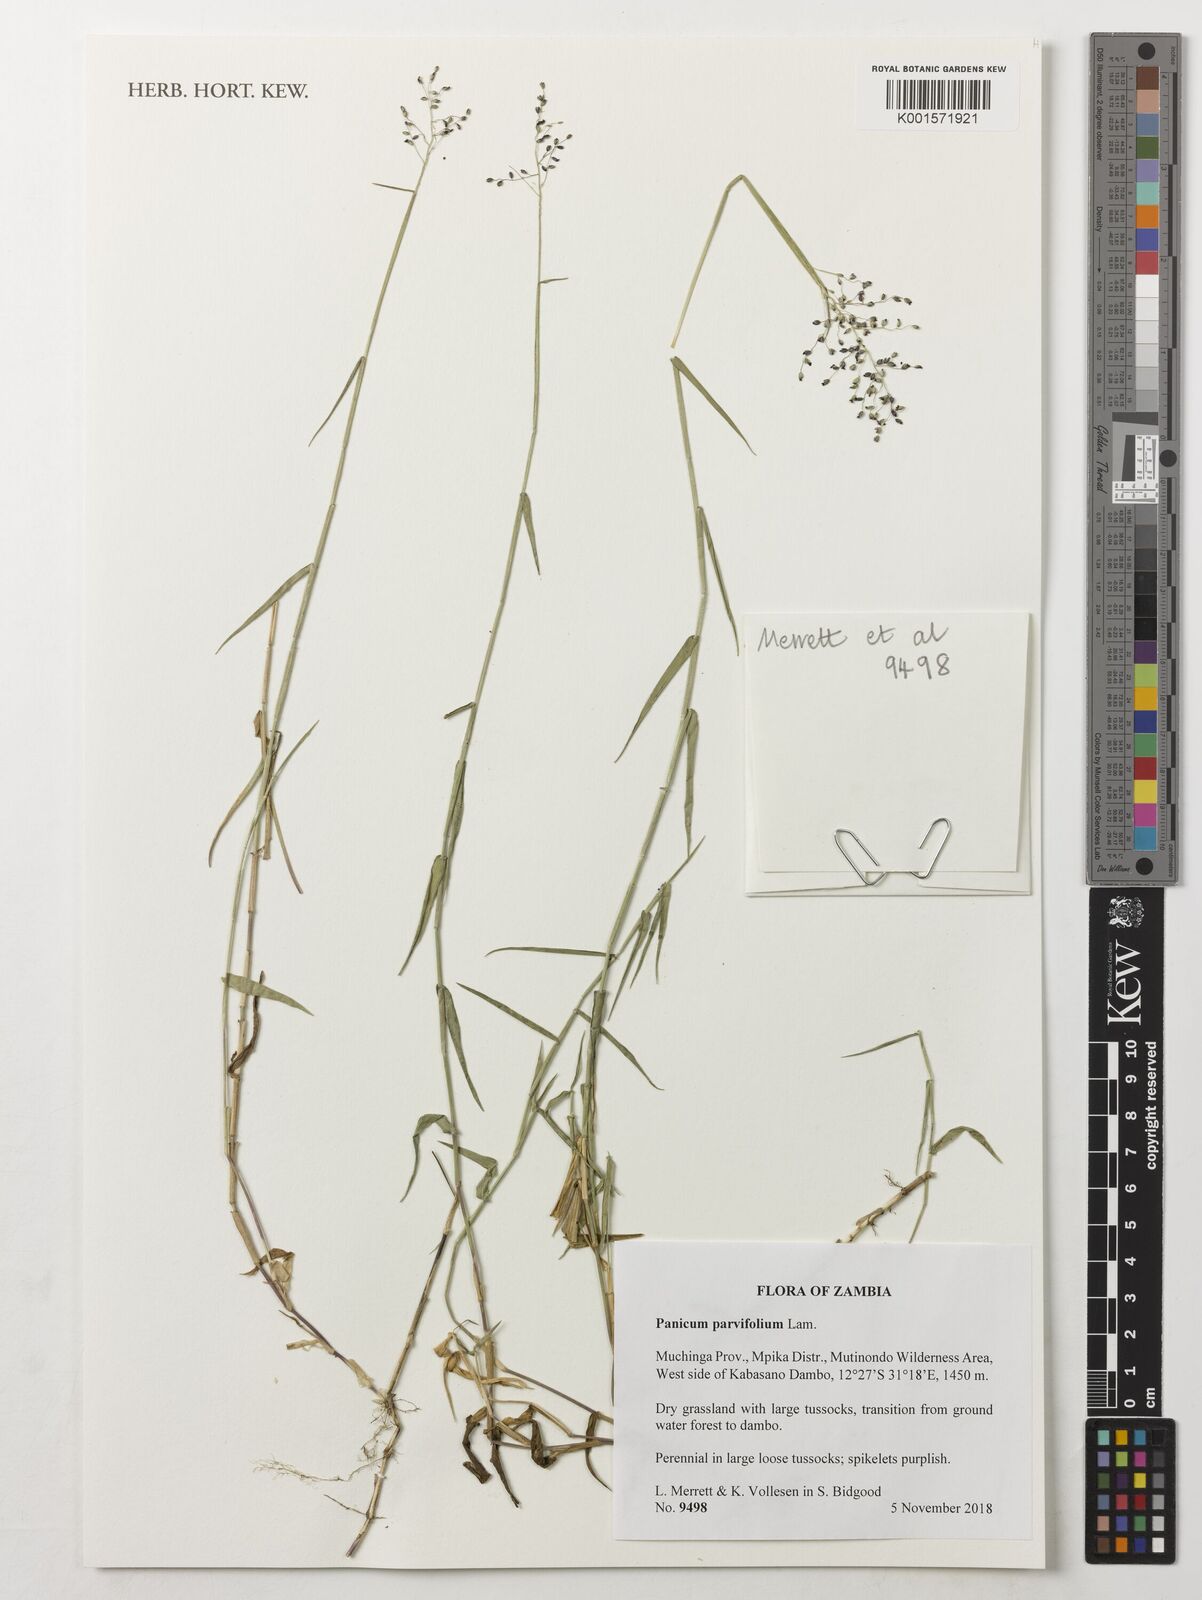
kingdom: Plantae
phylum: Tracheophyta
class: Liliopsida
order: Poales
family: Poaceae
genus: Trichanthecium
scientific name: Trichanthecium parvifolium
